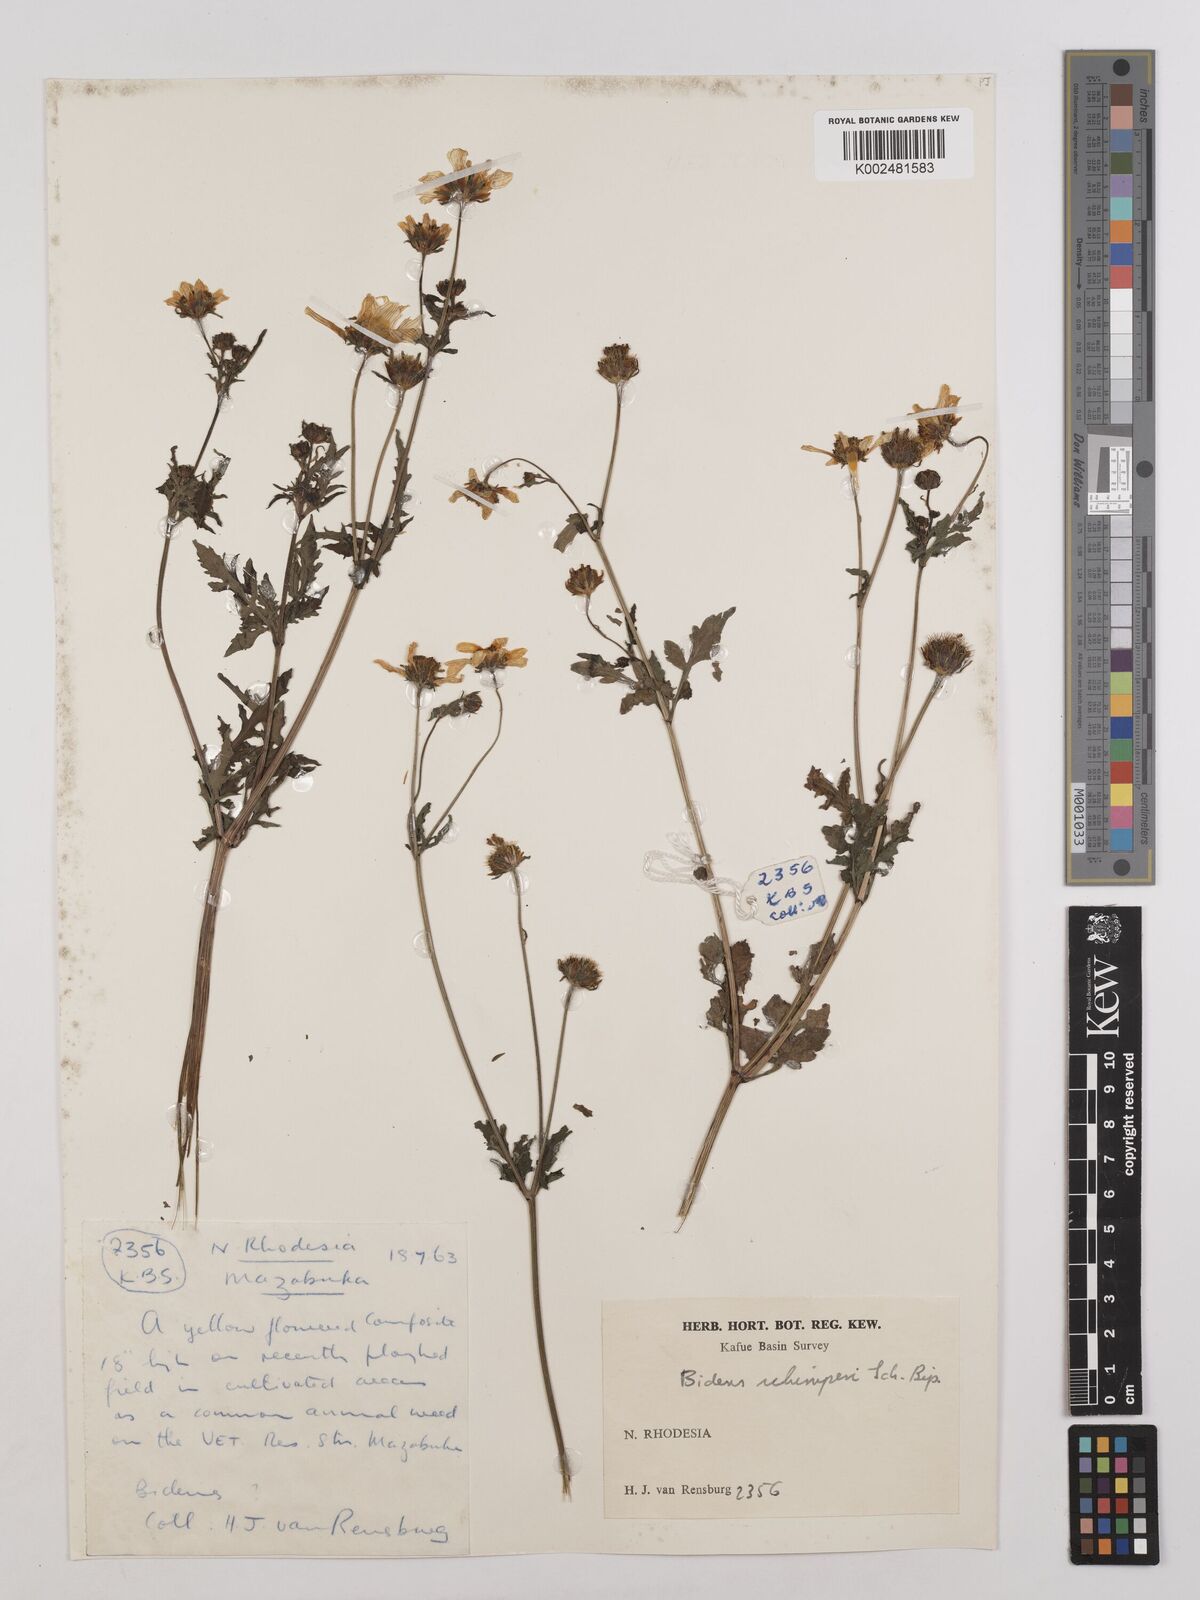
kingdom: Plantae
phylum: Tracheophyta
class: Magnoliopsida
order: Asterales
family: Asteraceae
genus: Bidens
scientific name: Bidens schimperi
